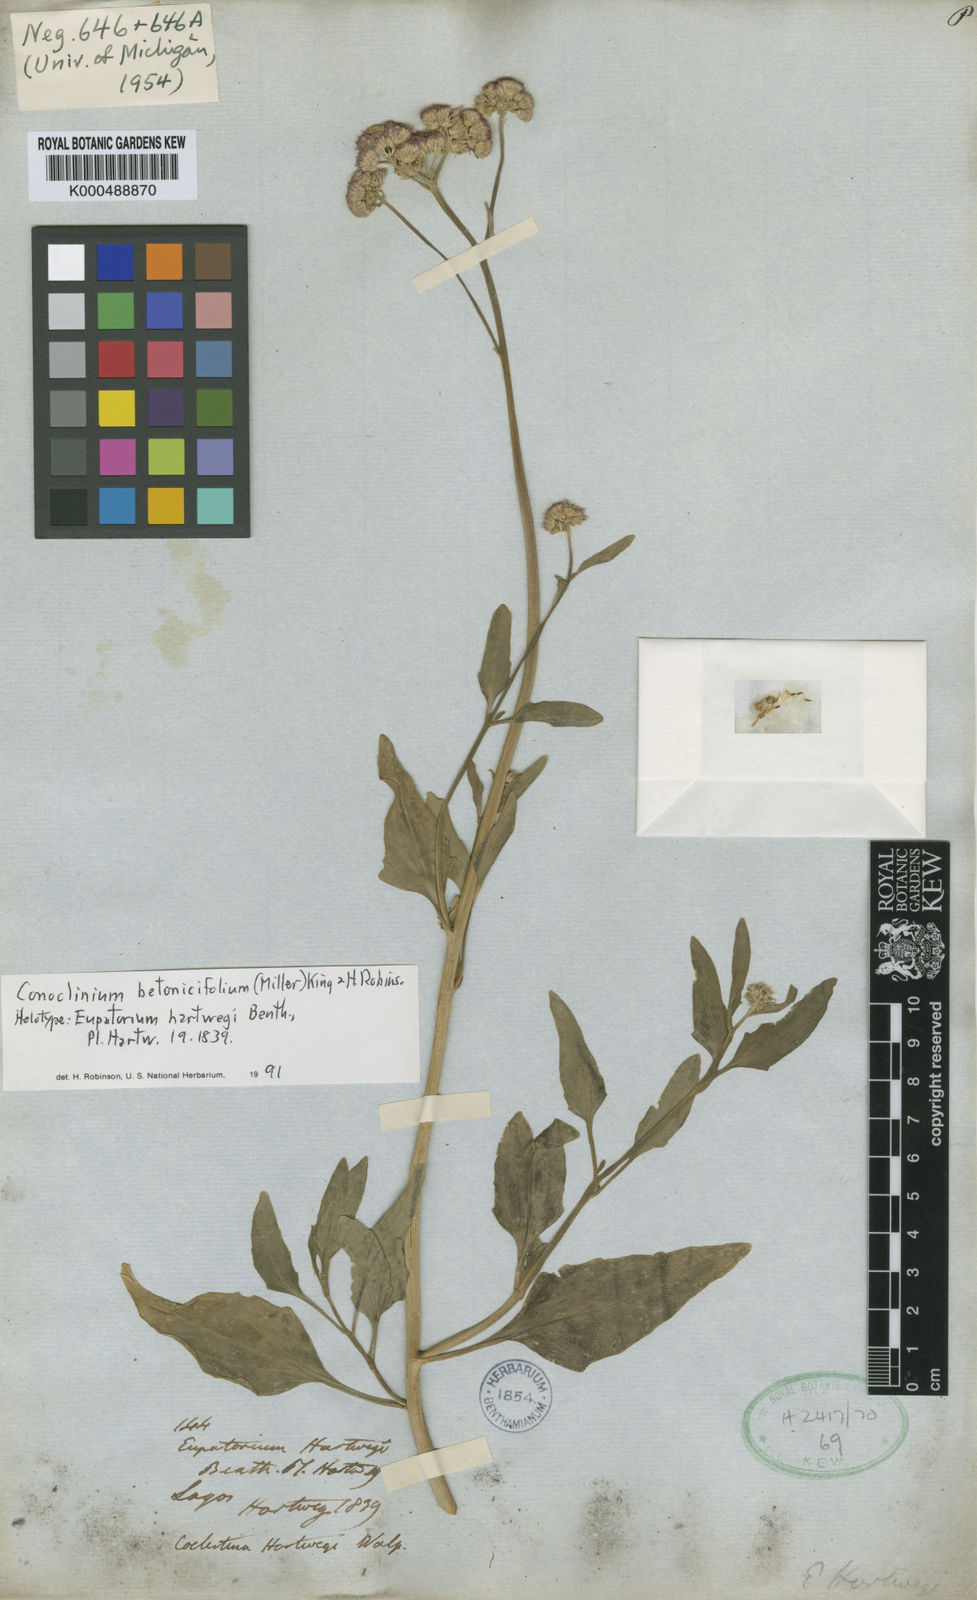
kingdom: Plantae
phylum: Tracheophyta
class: Magnoliopsida
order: Asterales
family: Asteraceae
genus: Conoclinium
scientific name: Conoclinium betonicifolium
